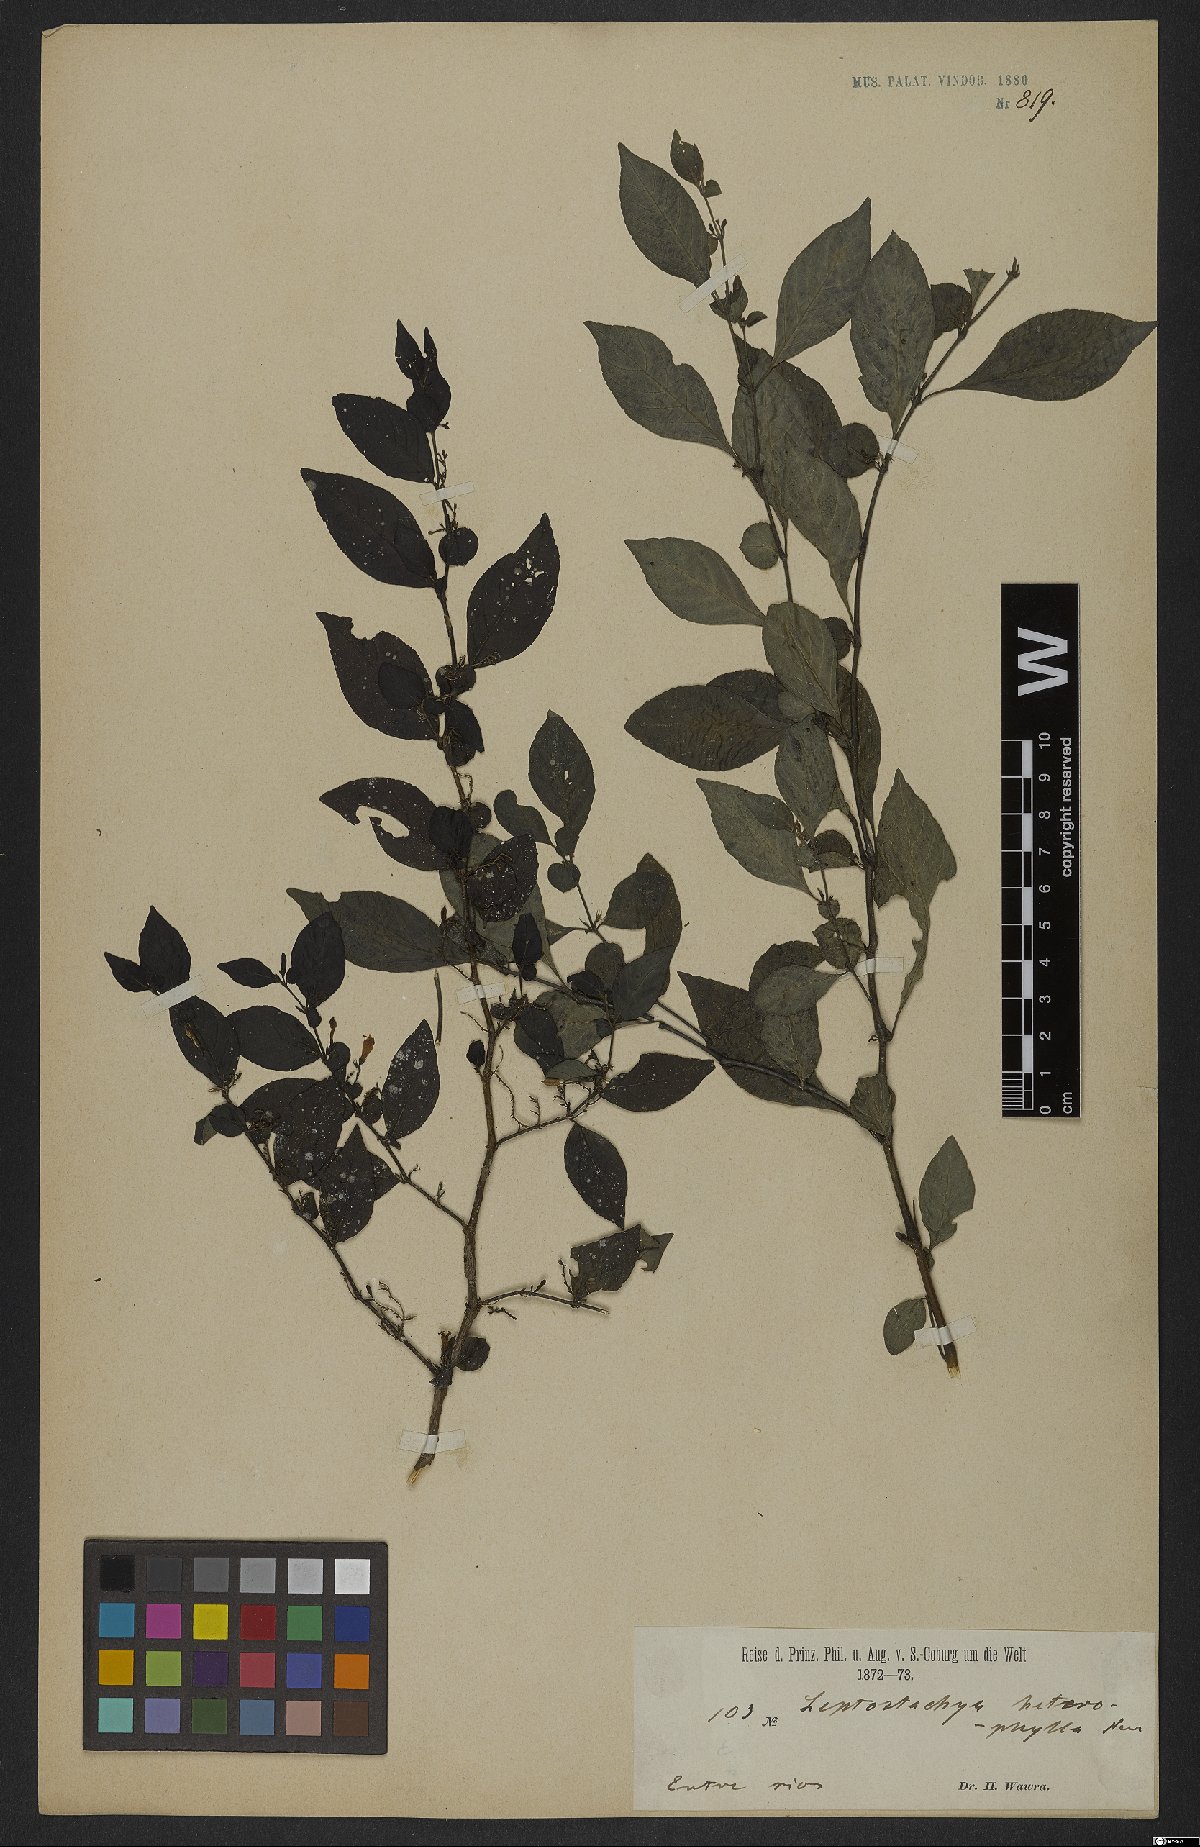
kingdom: Plantae
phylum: Tracheophyta
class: Magnoliopsida
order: Lamiales
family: Acanthaceae
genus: Justicia
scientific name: Justicia heterophylla
